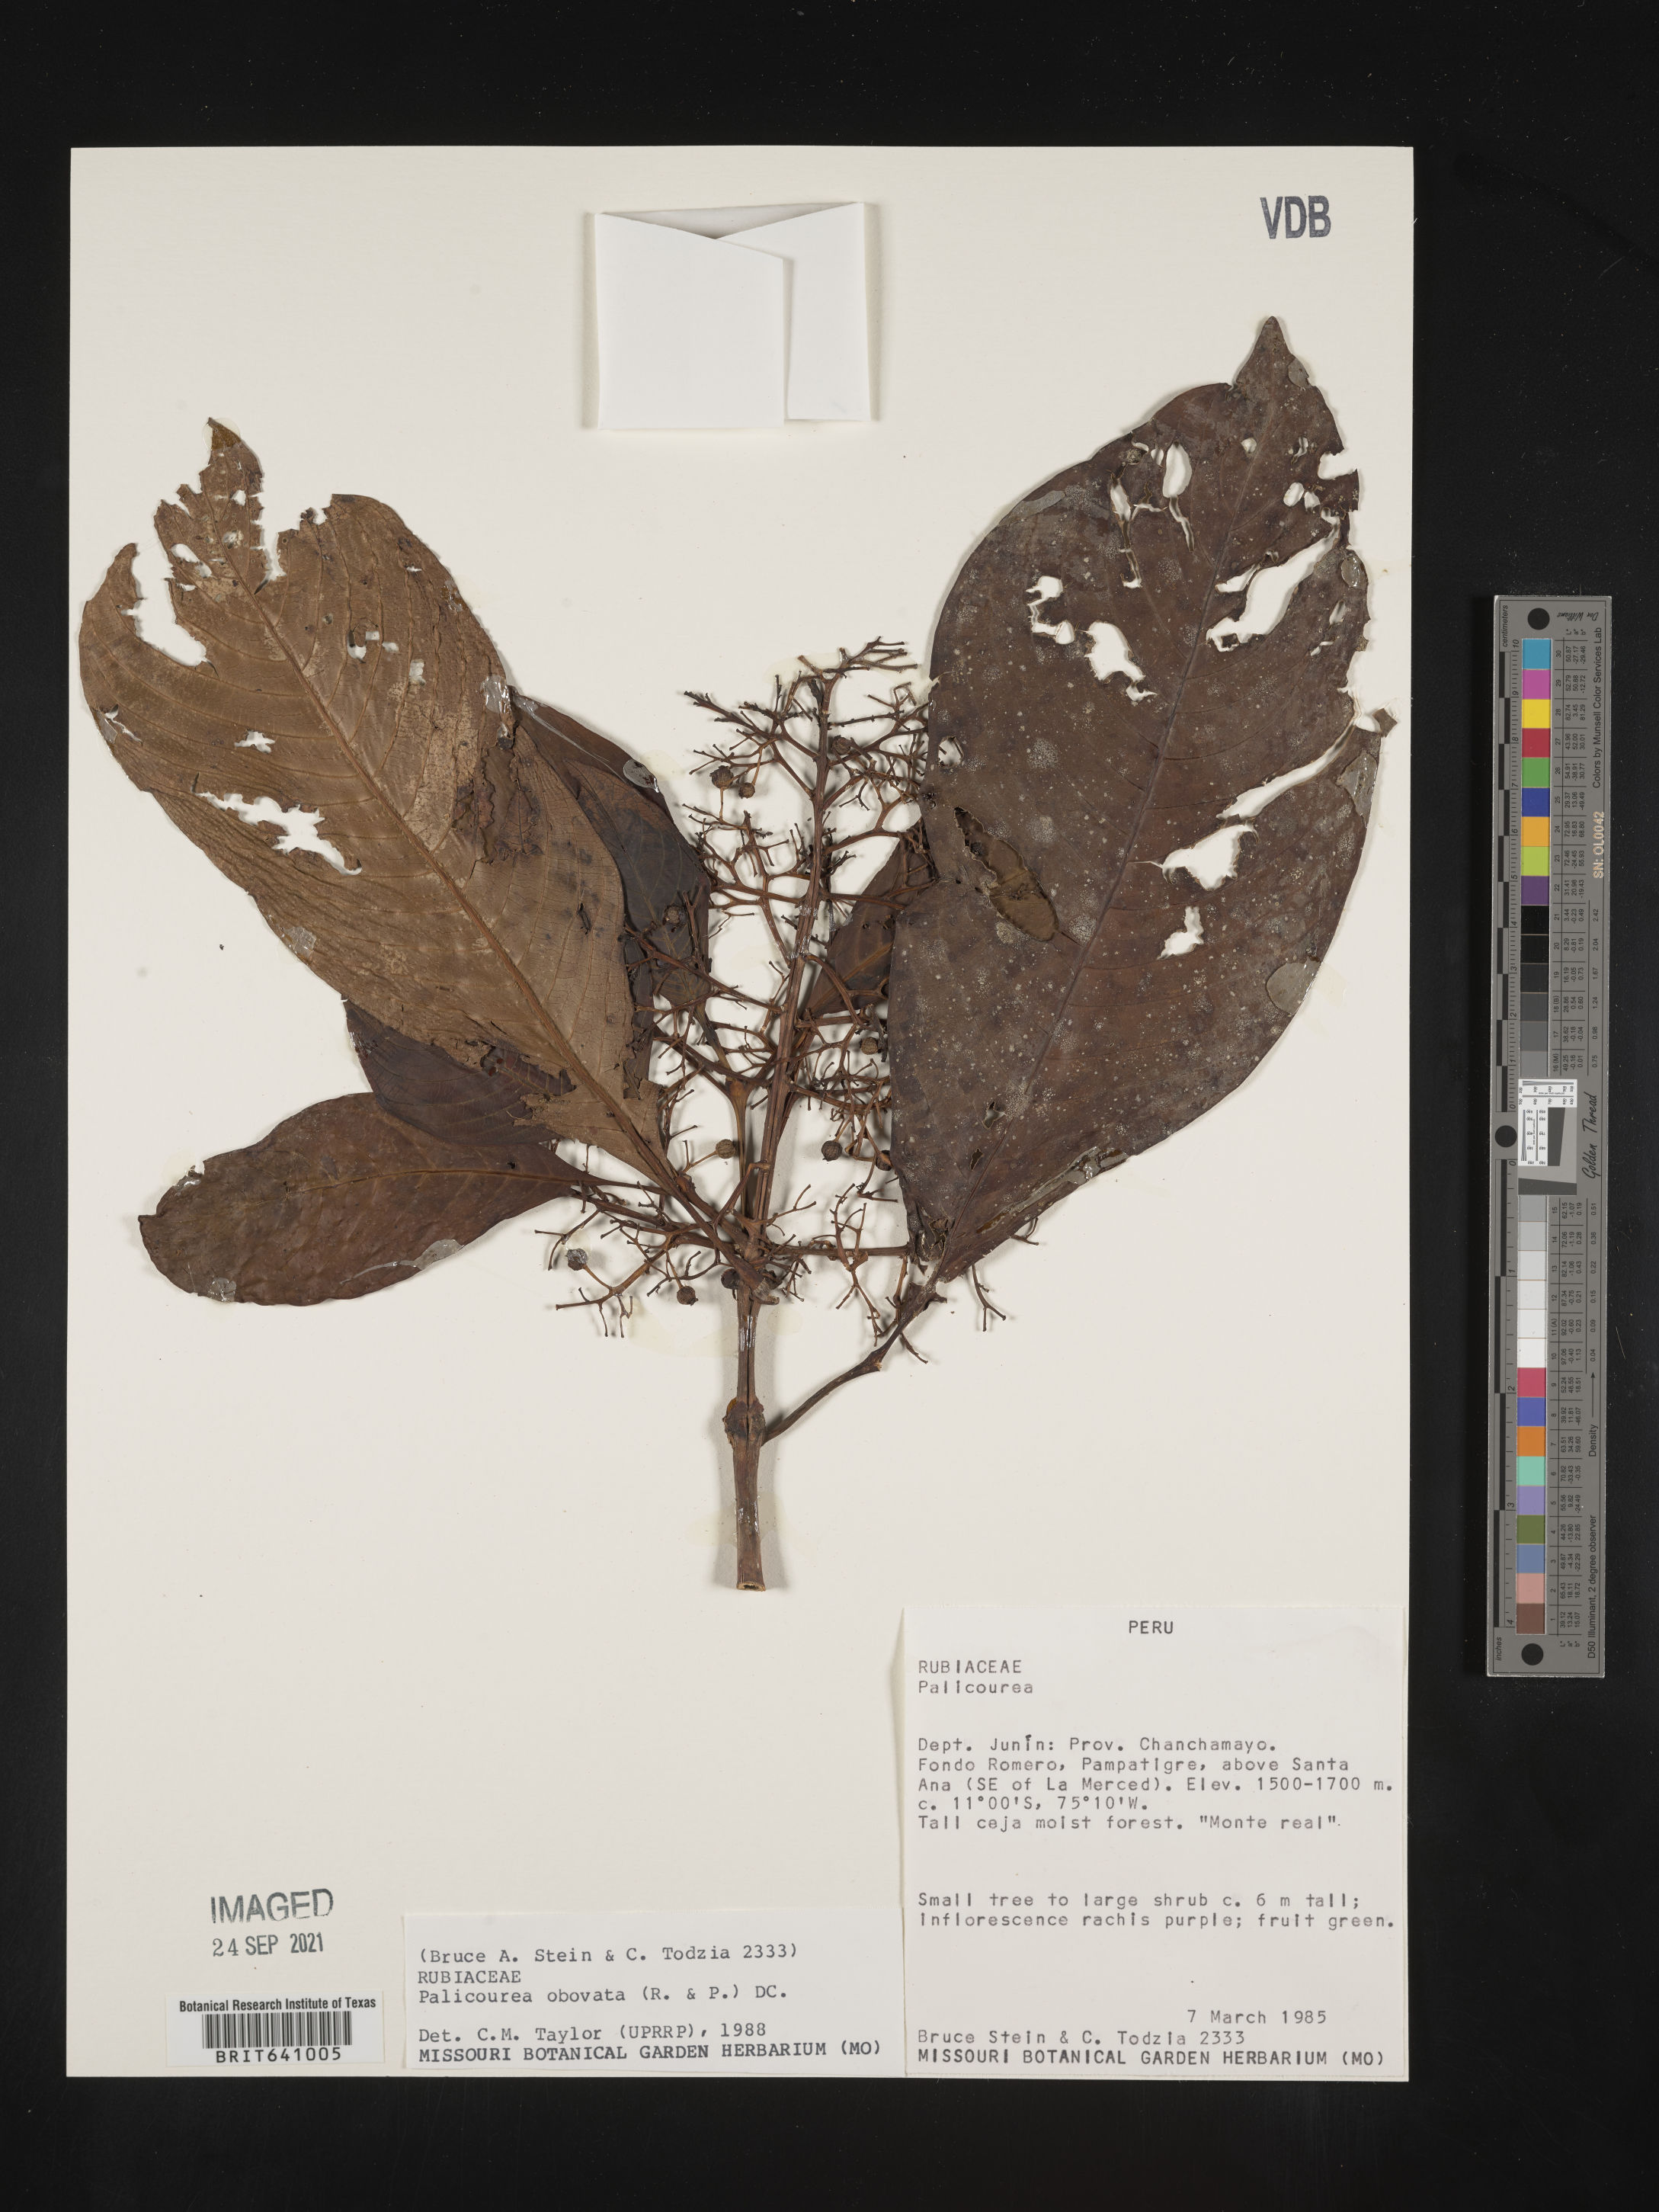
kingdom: Plantae
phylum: Tracheophyta
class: Magnoliopsida
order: Gentianales
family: Rubiaceae
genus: Palicourea
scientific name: Palicourea
